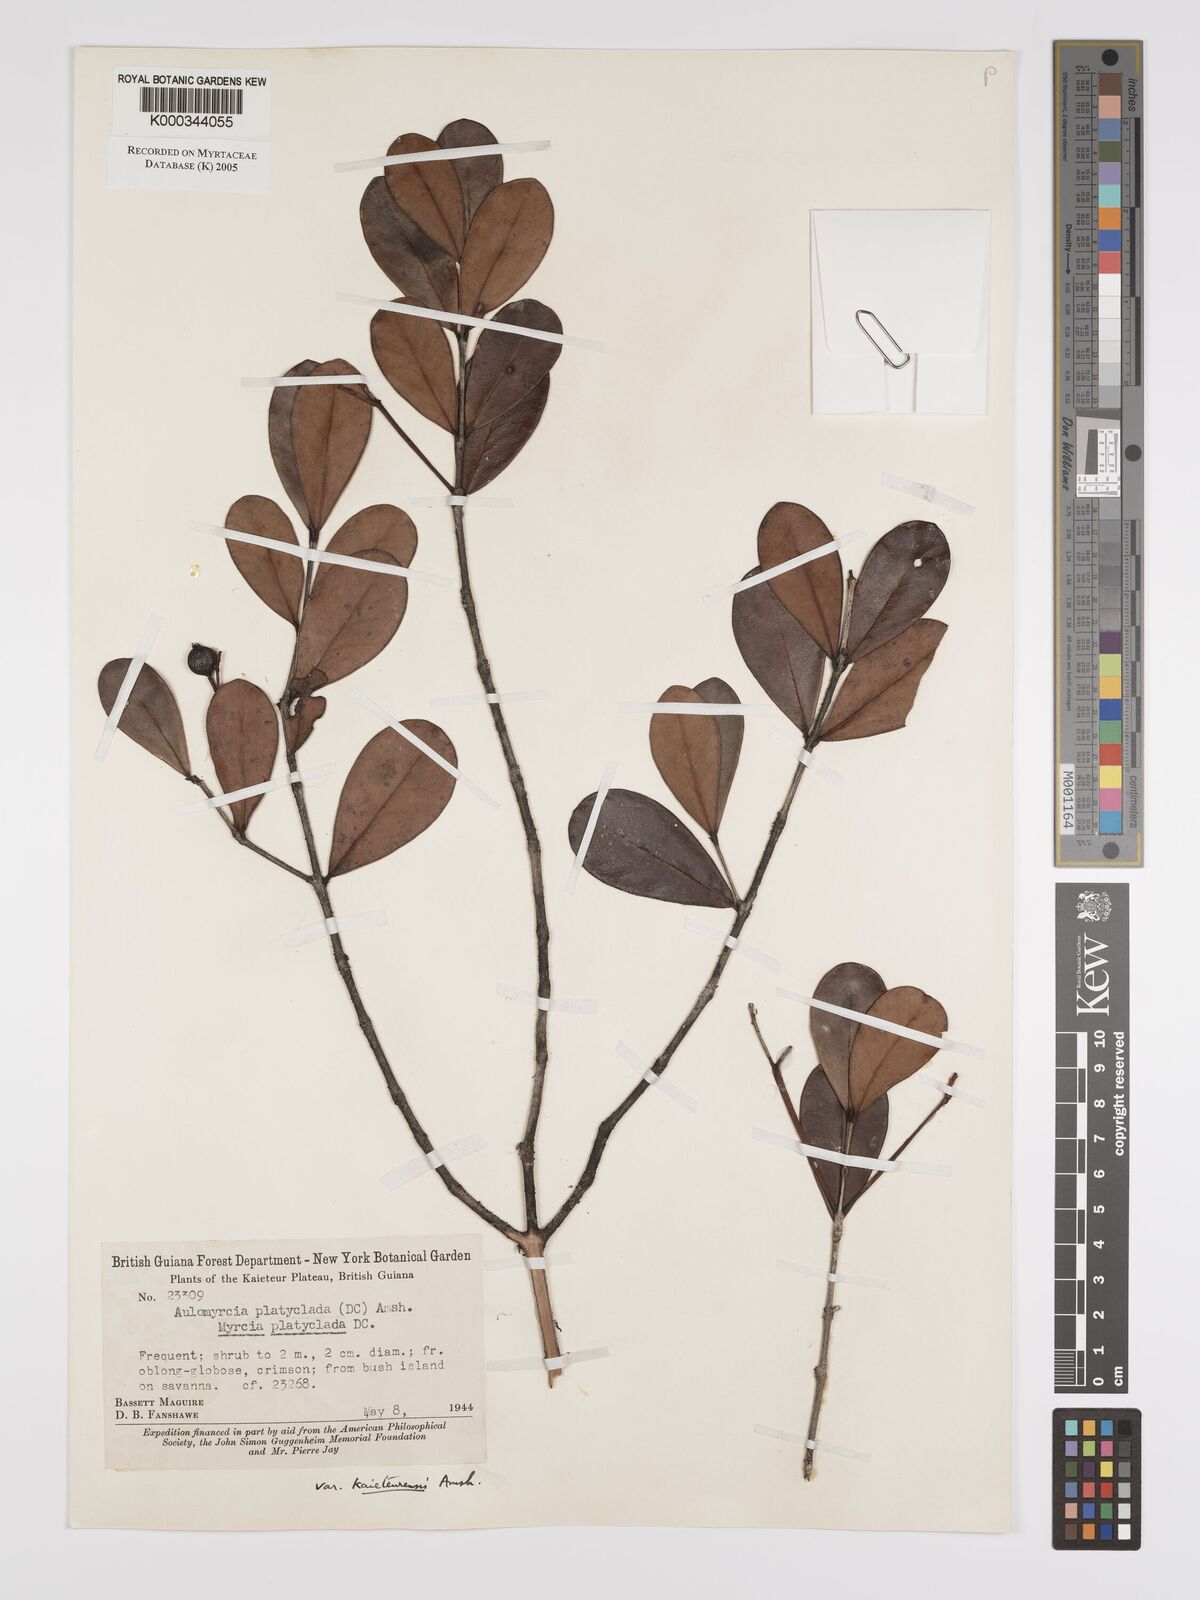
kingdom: Plantae
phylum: Tracheophyta
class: Magnoliopsida
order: Myrtales
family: Myrtaceae
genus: Myrcia
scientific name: Myrcia platyclada
